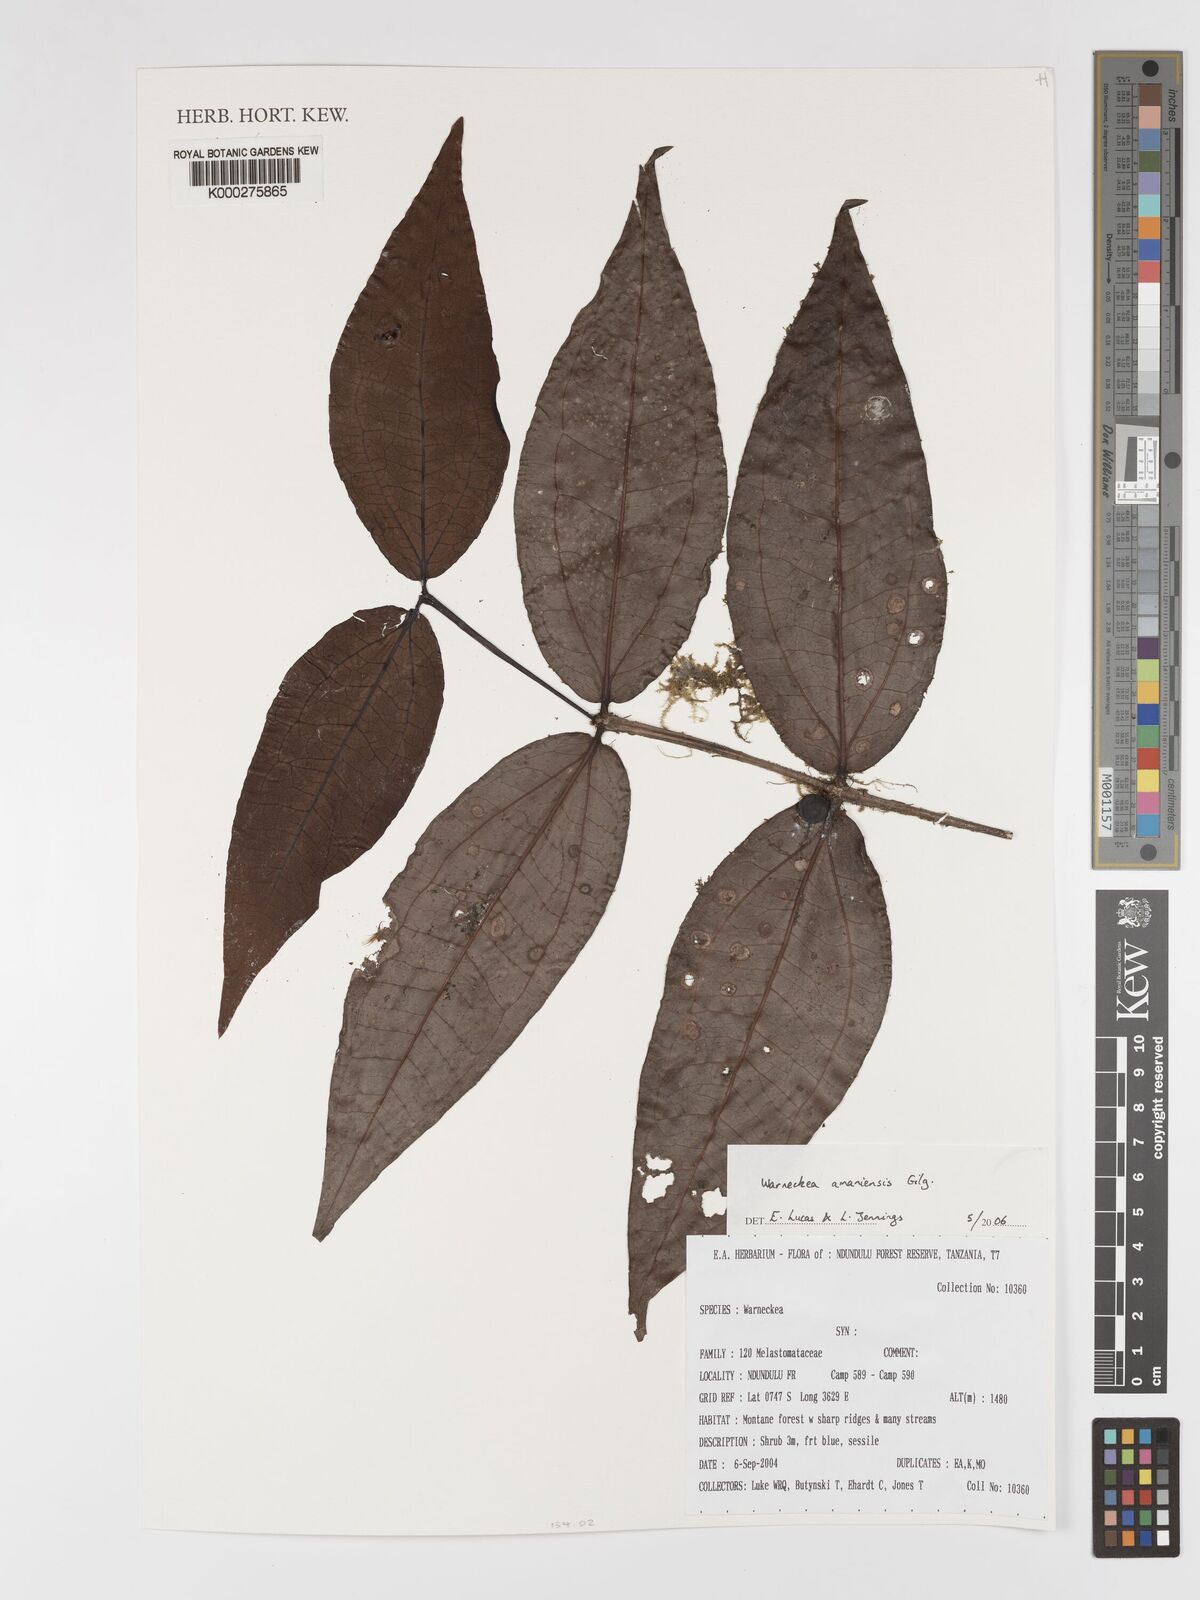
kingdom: Plantae
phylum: Tracheophyta
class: Magnoliopsida
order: Myrtales
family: Melastomataceae
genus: Warneckea
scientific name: Warneckea amaniensis
